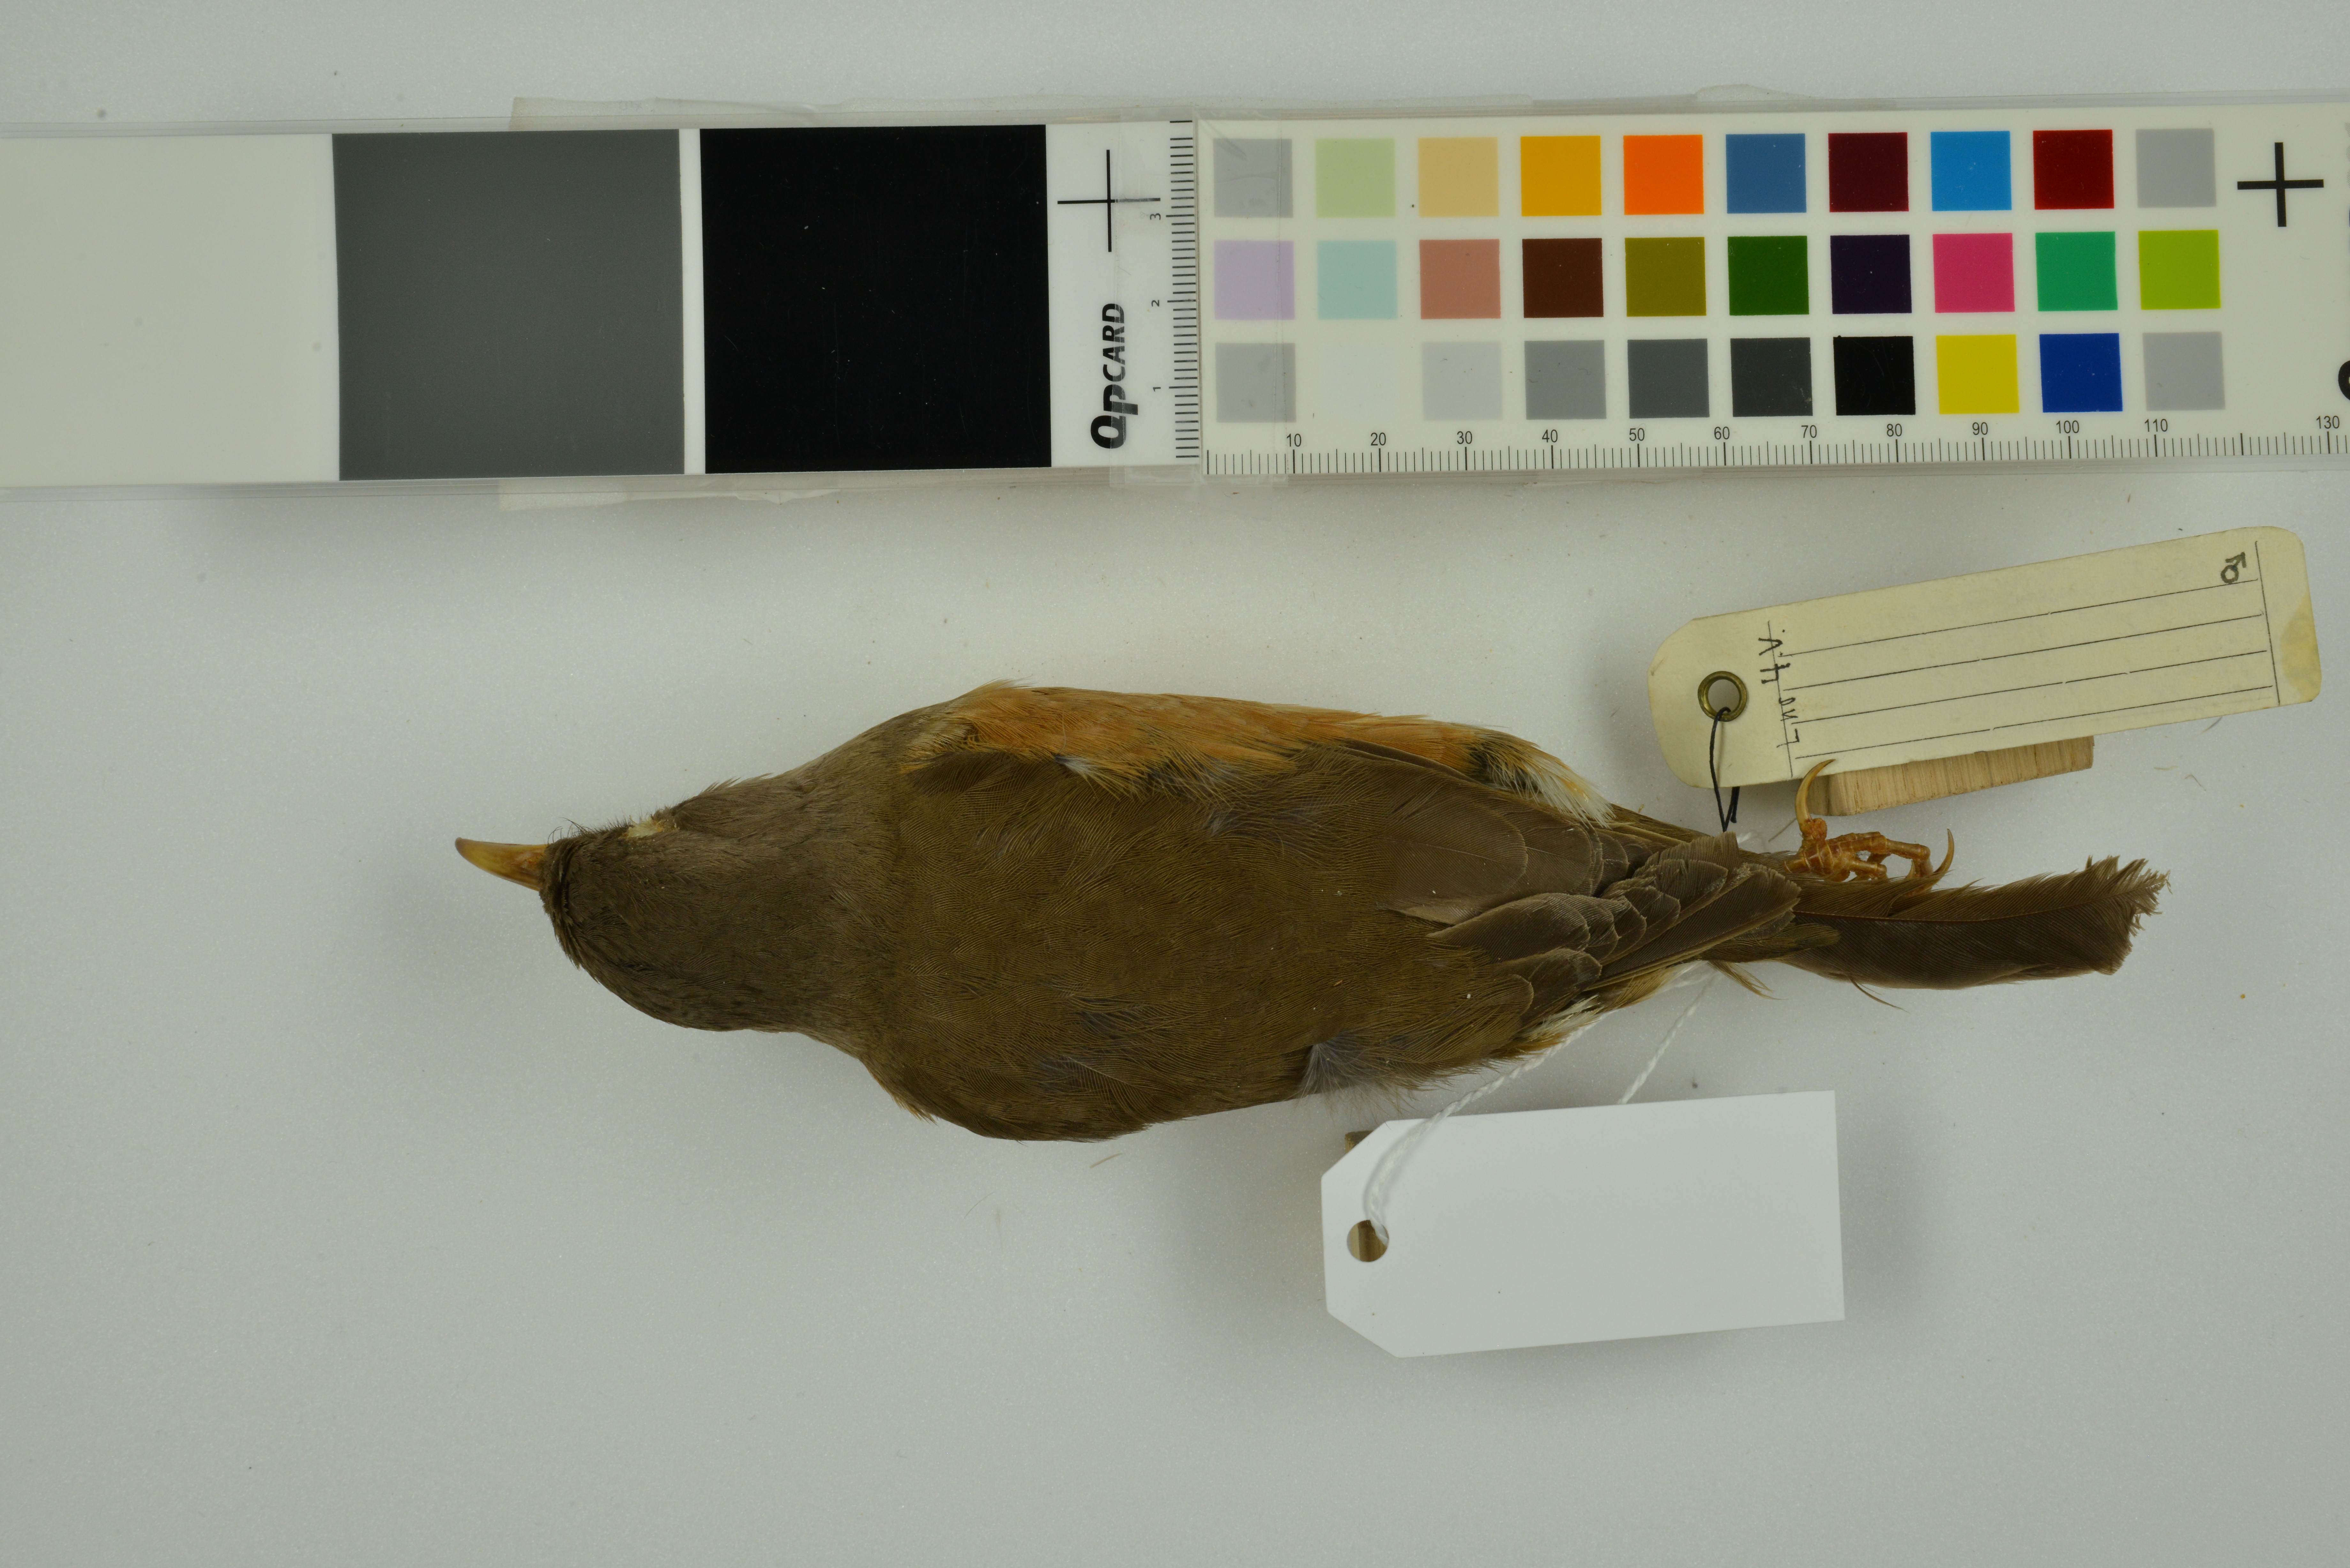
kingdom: Animalia
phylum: Chordata
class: Aves
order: Passeriformes
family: Turdidae
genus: Turdus
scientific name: Turdus poliocephalus
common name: Island thrush
